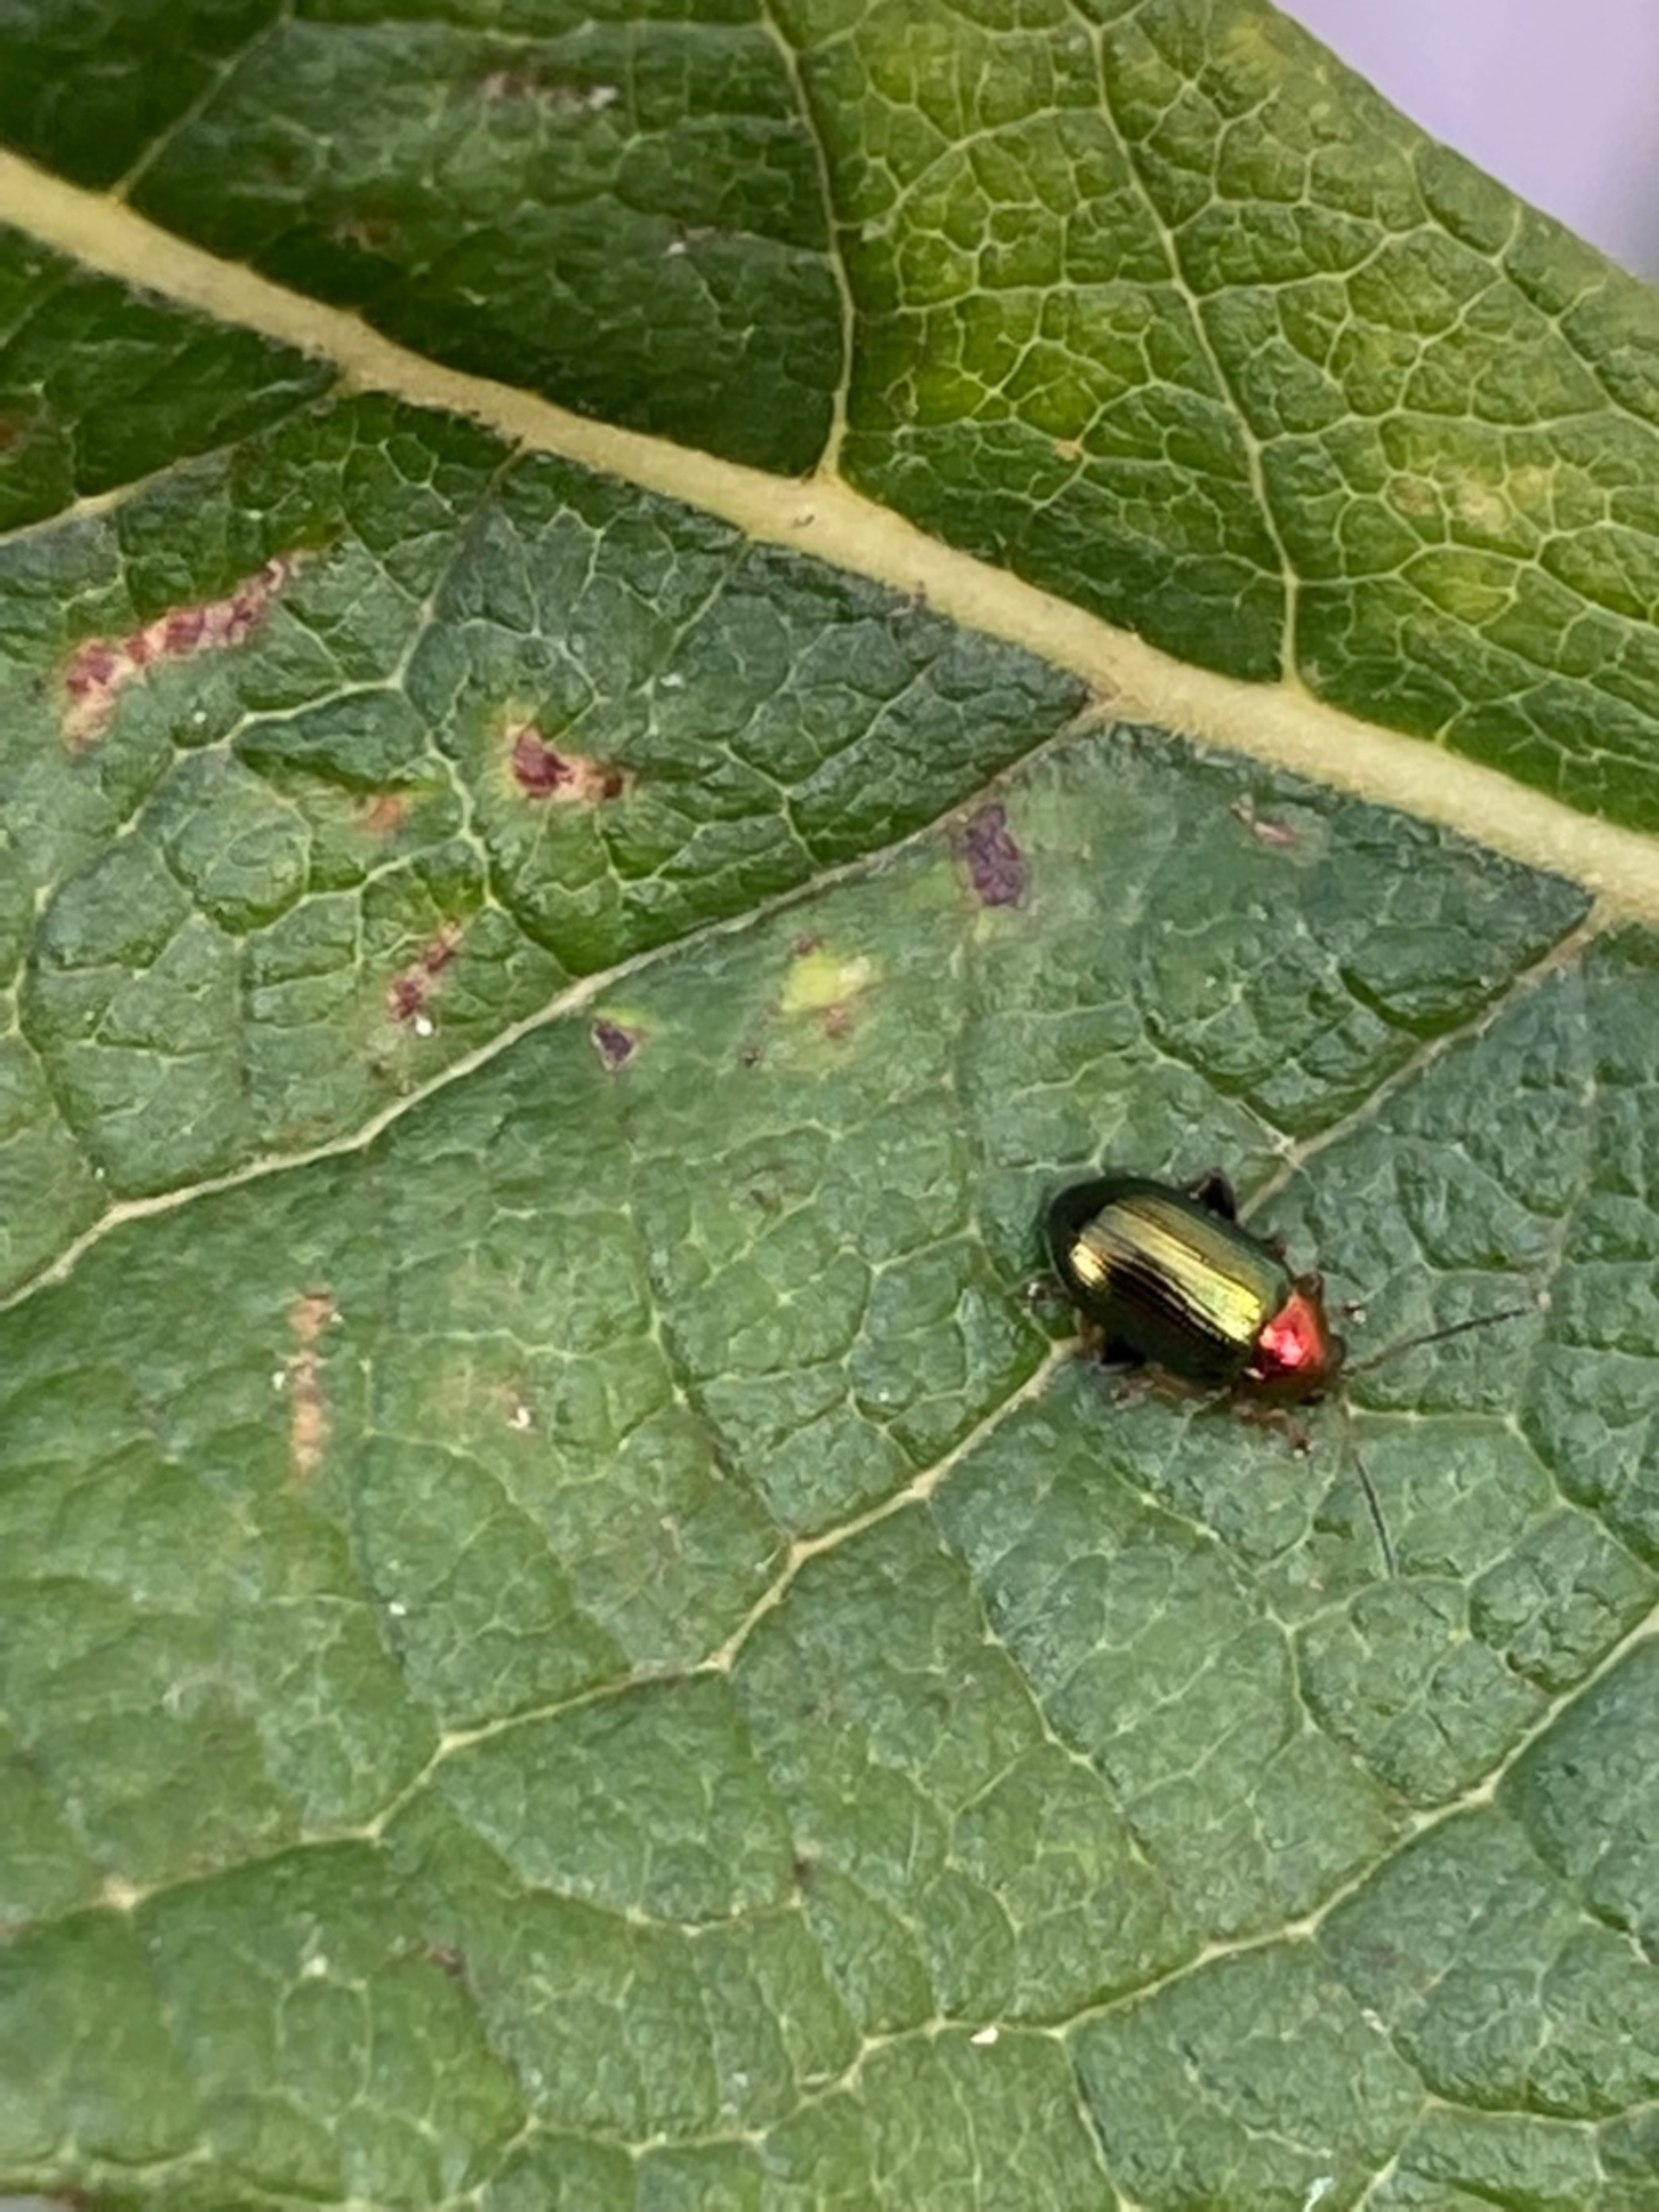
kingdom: Animalia
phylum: Arthropoda
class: Insecta
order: Coleoptera
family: Chrysomelidae
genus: Crepidodera
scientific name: Crepidodera aurata
